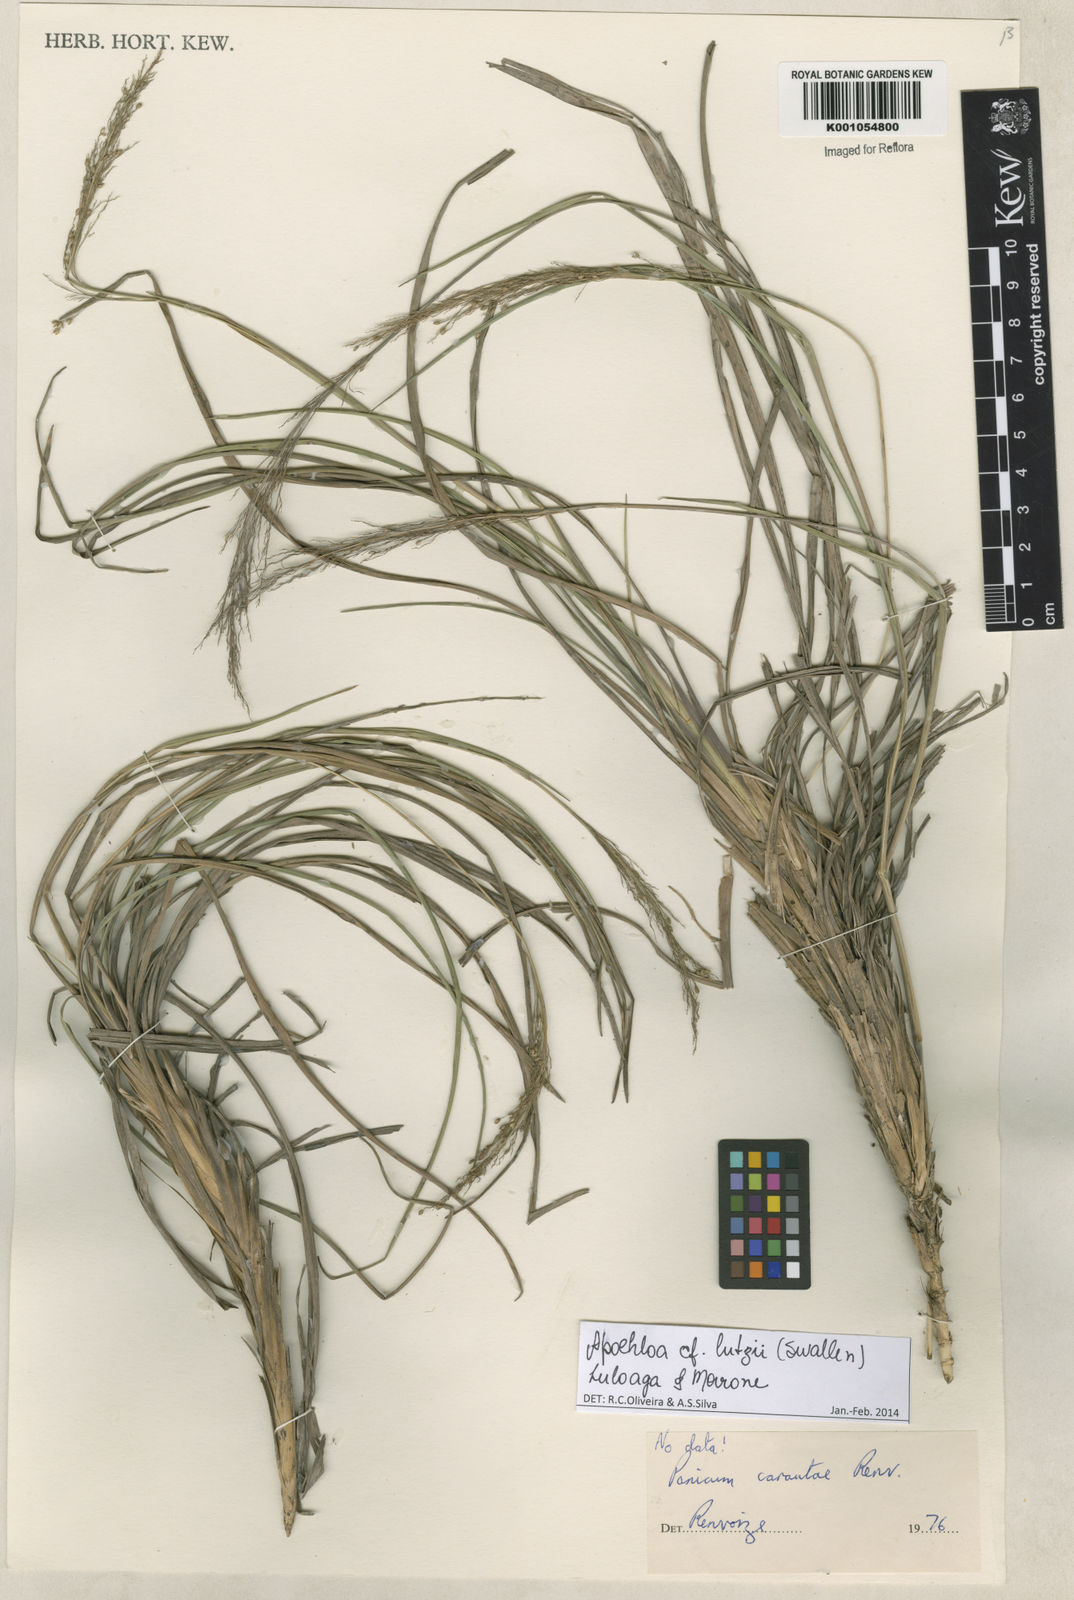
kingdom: Plantae
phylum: Tracheophyta
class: Liliopsida
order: Poales
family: Poaceae
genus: Apochloa
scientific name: Apochloa lutzii
